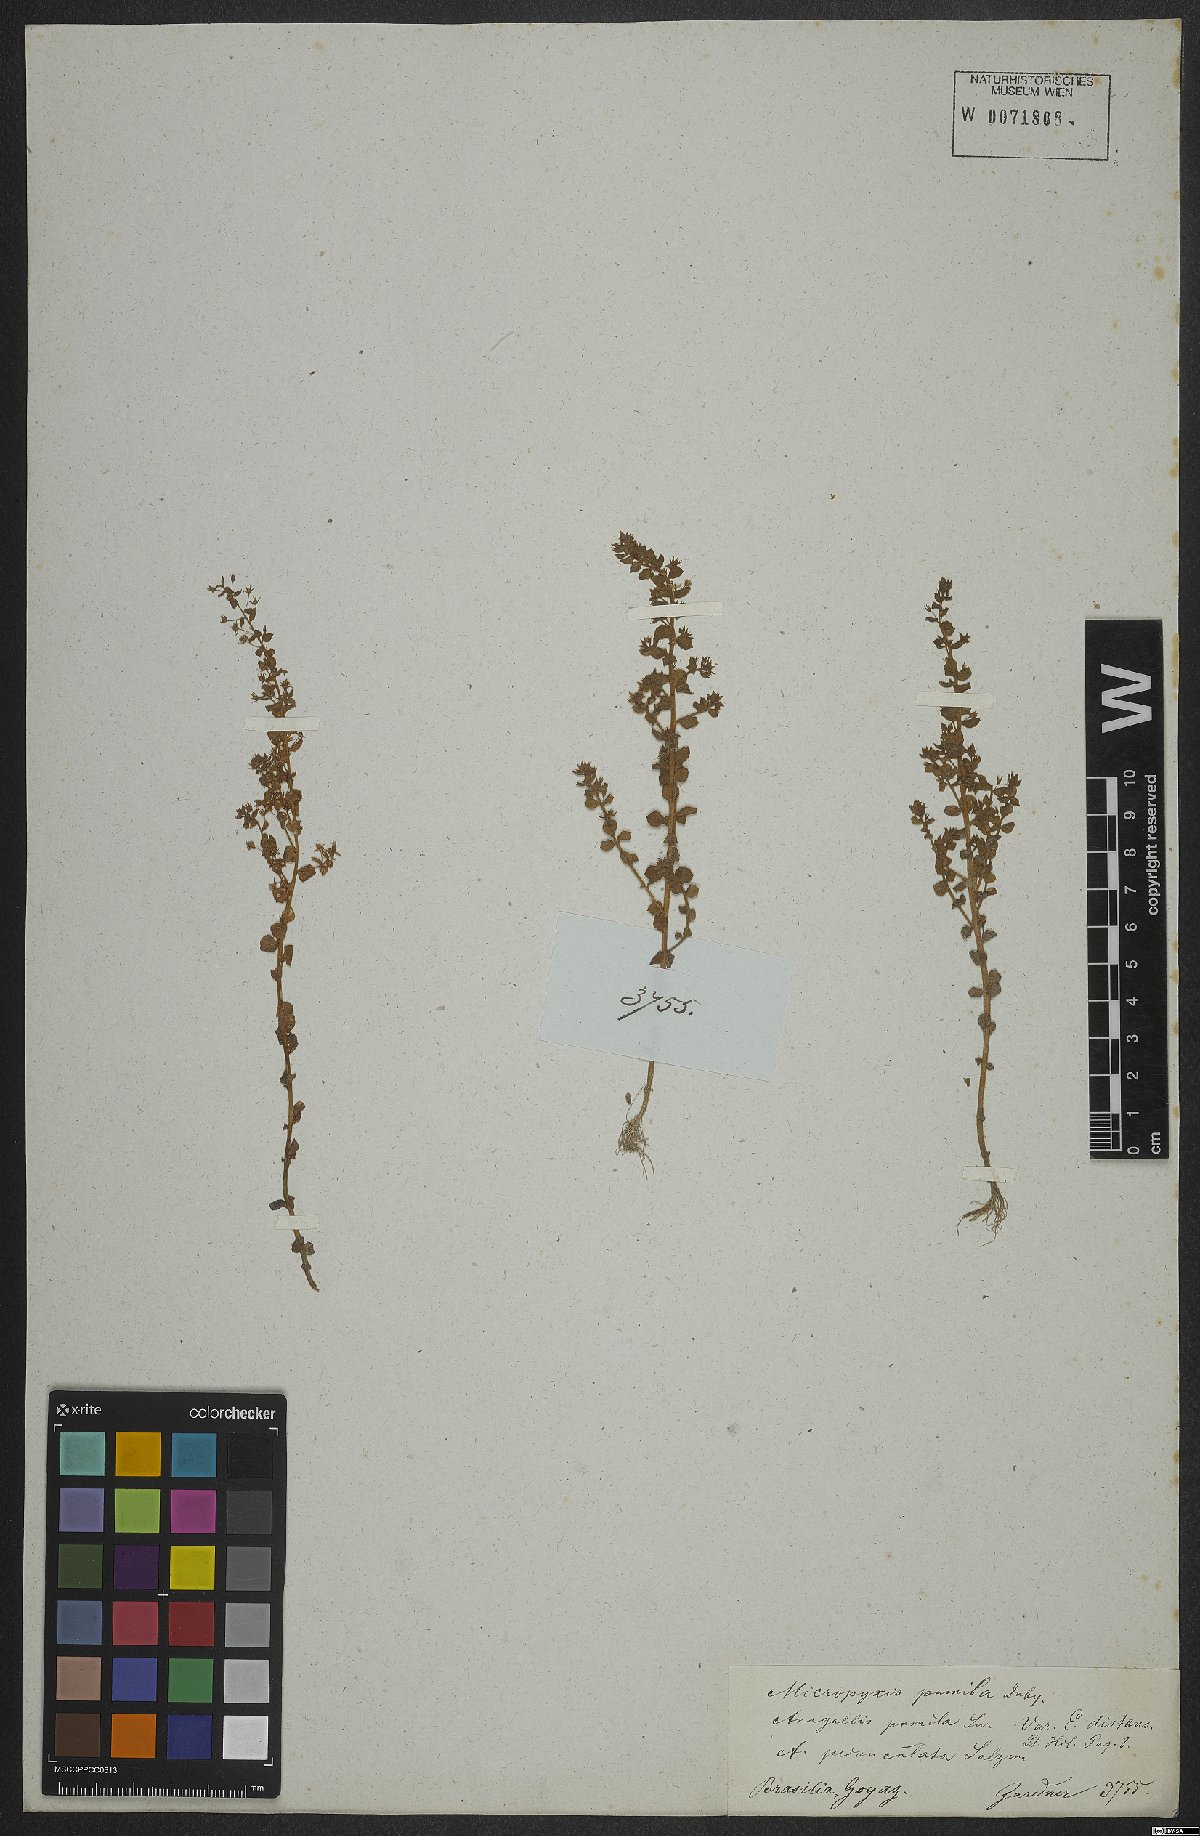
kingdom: Plantae
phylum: Tracheophyta
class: Magnoliopsida
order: Ericales
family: Primulaceae
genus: Lysimachia
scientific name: Lysimachia ovalis
